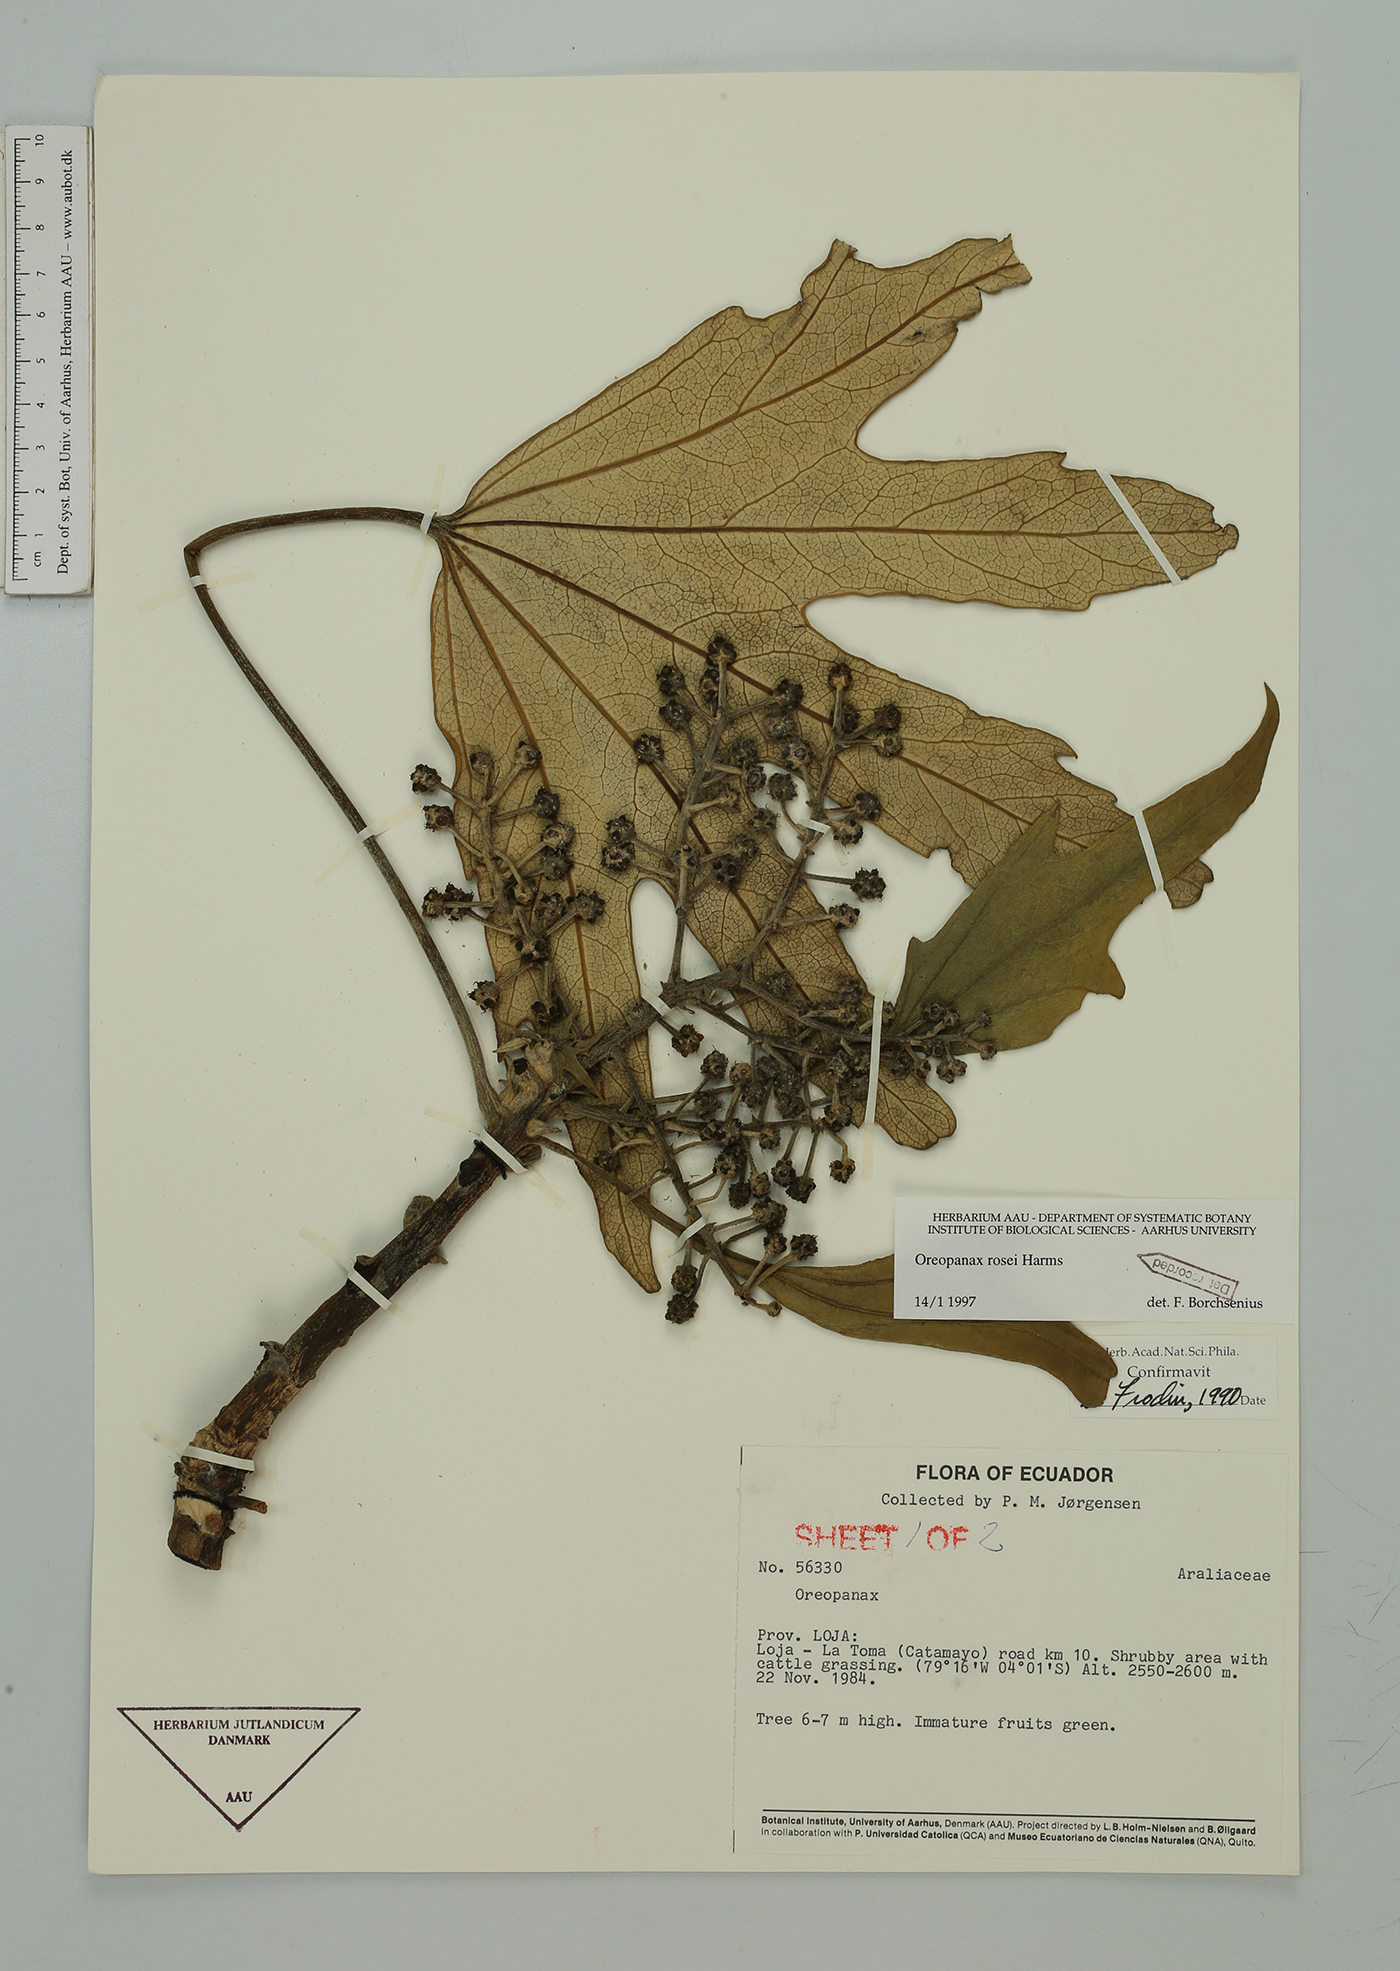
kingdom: Plantae
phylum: Tracheophyta
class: Magnoliopsida
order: Apiales
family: Araliaceae
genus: Oreopanax
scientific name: Oreopanax rosei
